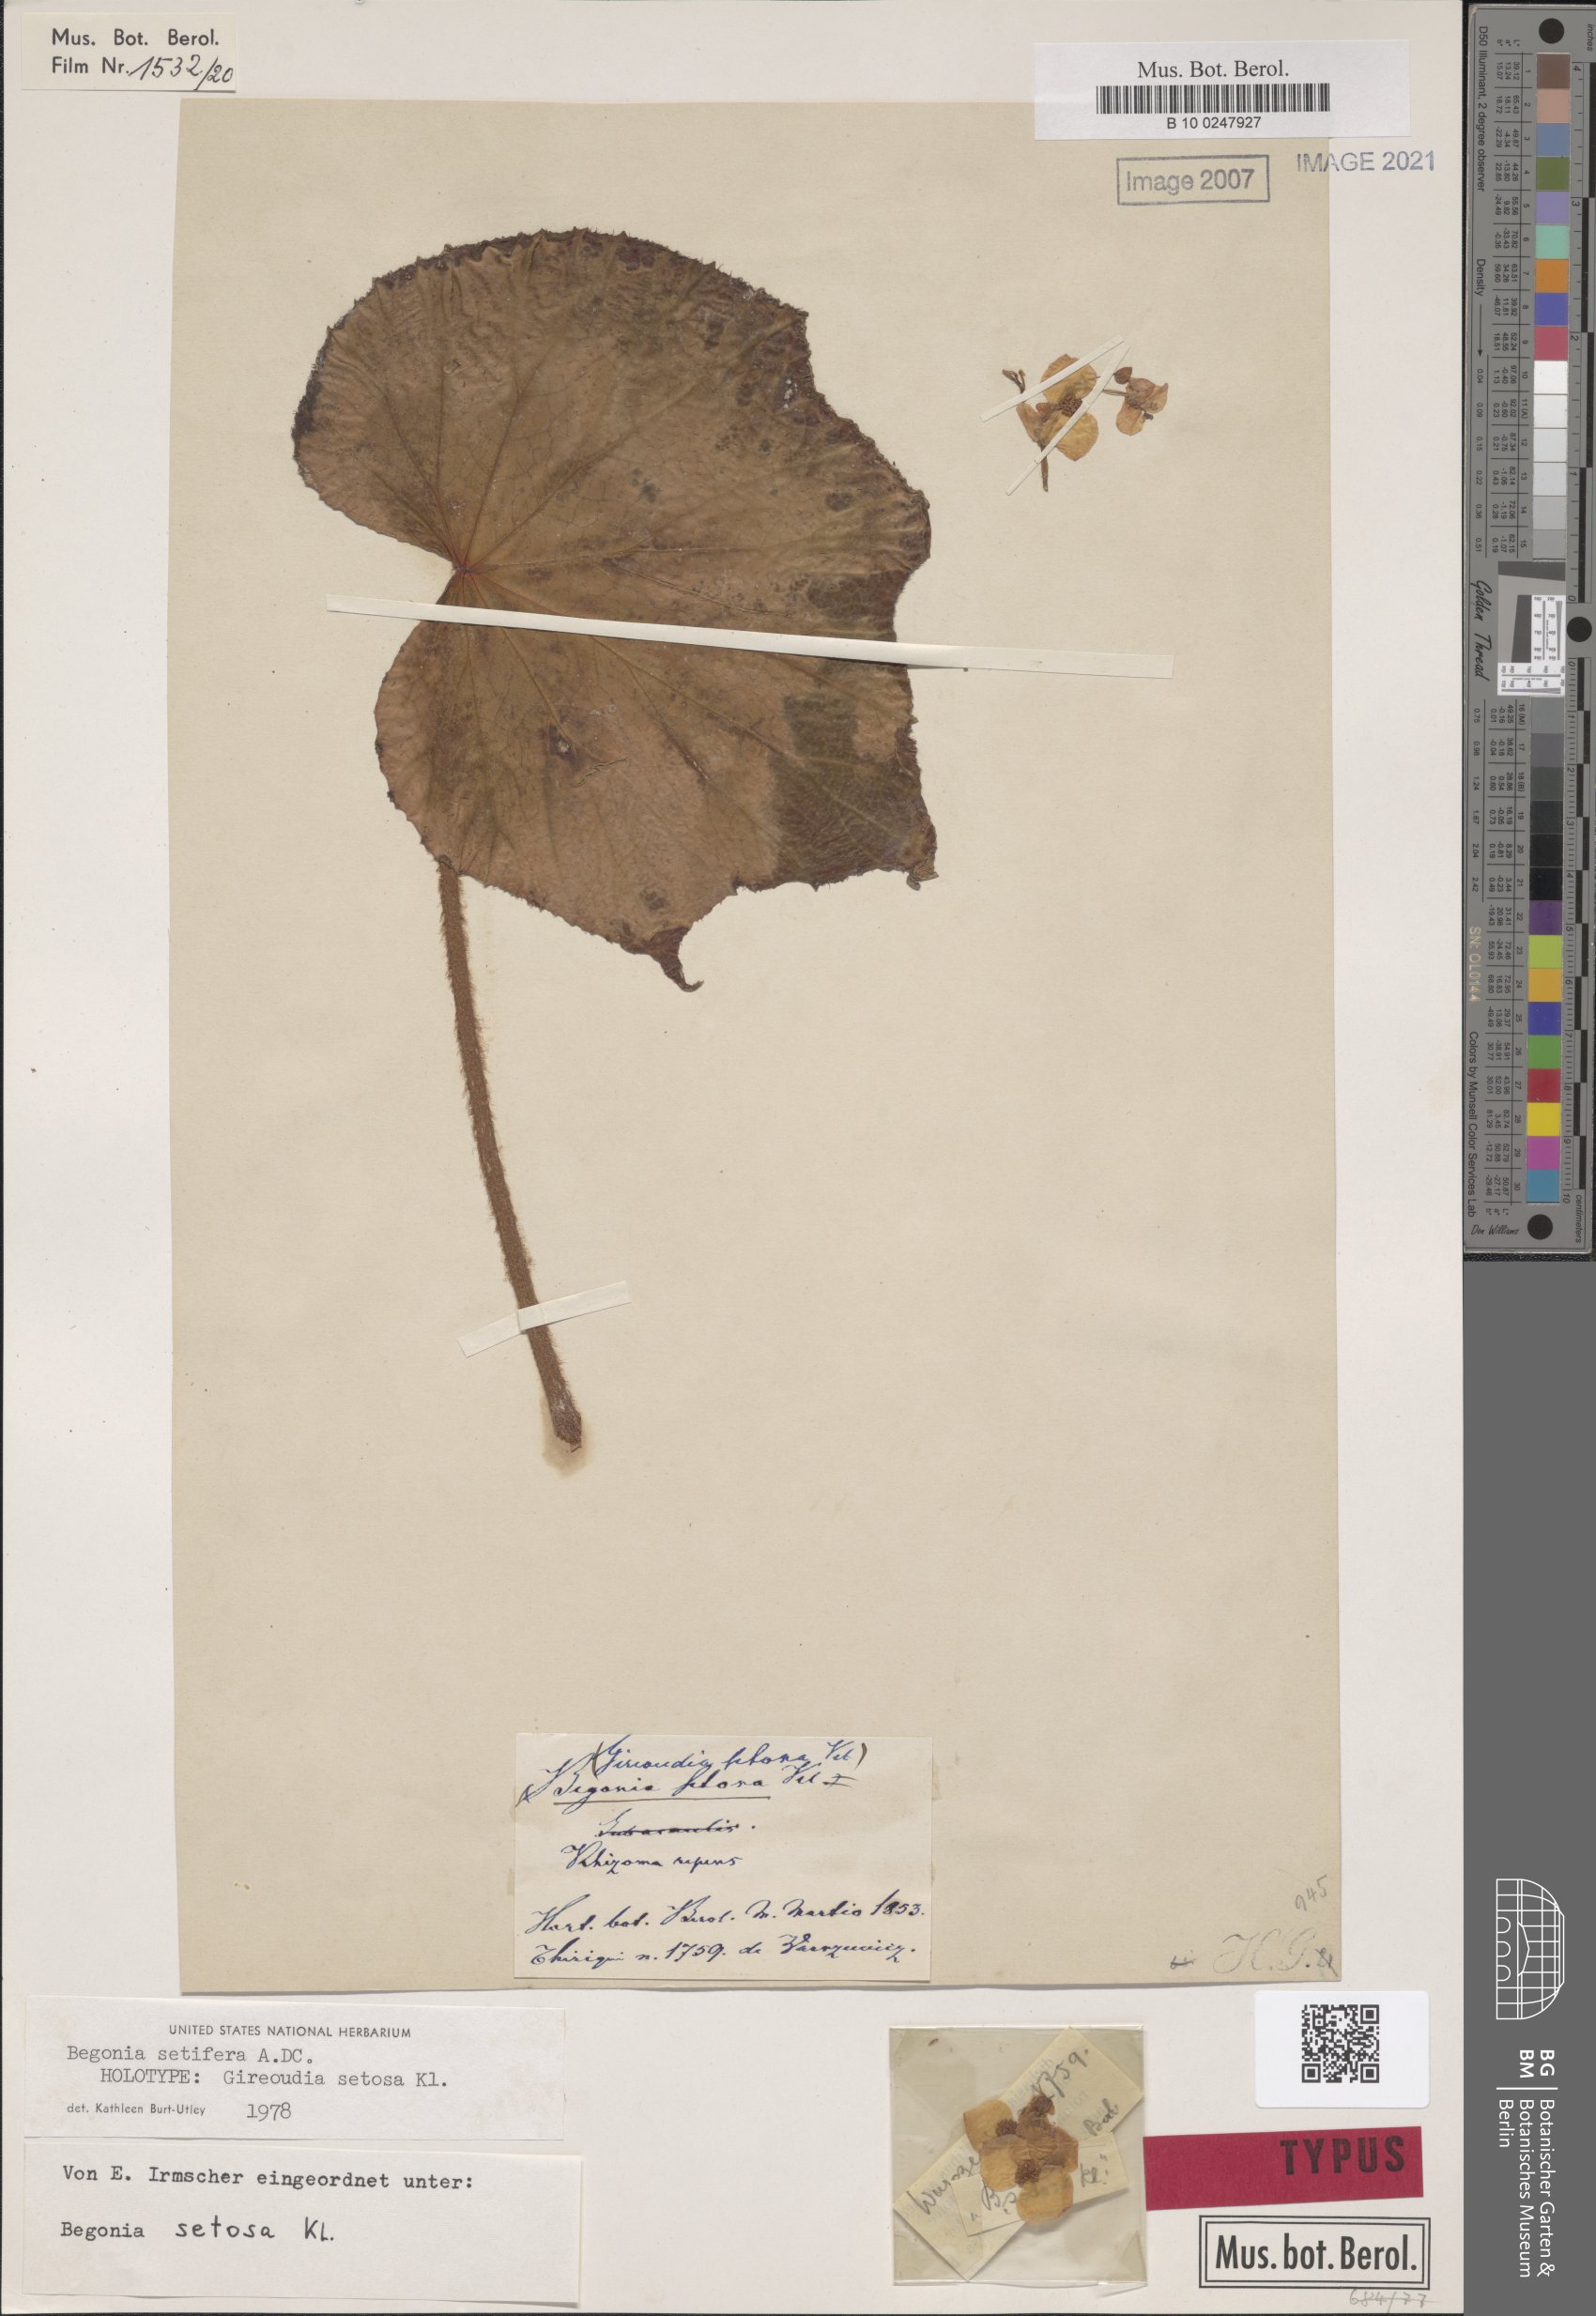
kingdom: Plantae
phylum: Tracheophyta
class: Magnoliopsida
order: Cucurbitales
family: Begoniaceae
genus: Begonia
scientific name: Begonia urophylla
